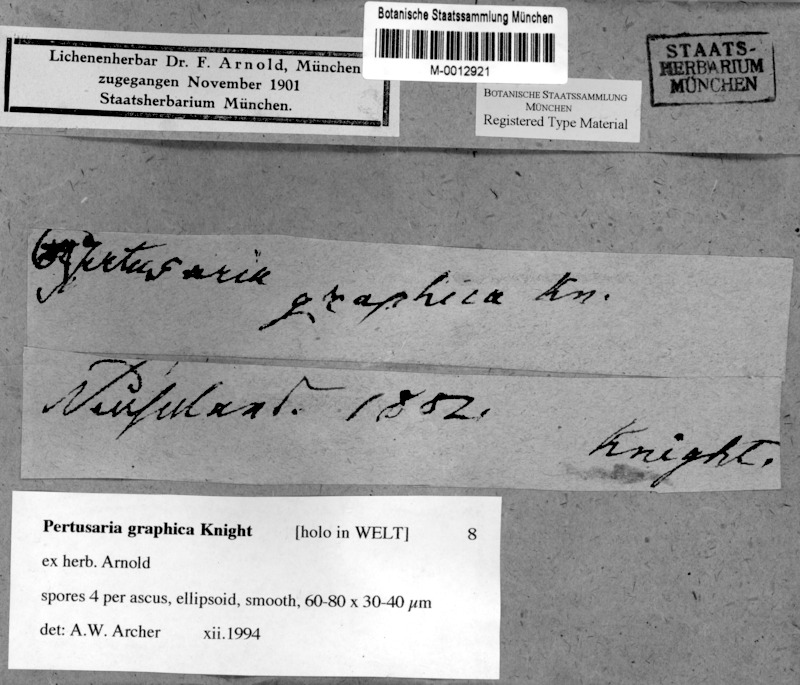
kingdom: Fungi
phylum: Ascomycota
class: Lecanoromycetes
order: Pertusariales
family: Pertusariaceae
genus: Pertusaria
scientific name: Pertusaria graphica
